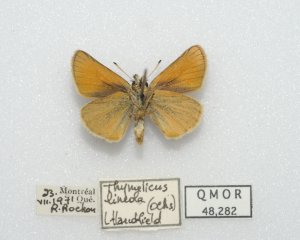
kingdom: Animalia
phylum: Arthropoda
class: Insecta
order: Lepidoptera
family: Hesperiidae
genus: Thymelicus
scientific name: Thymelicus lineola
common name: European Skipper
